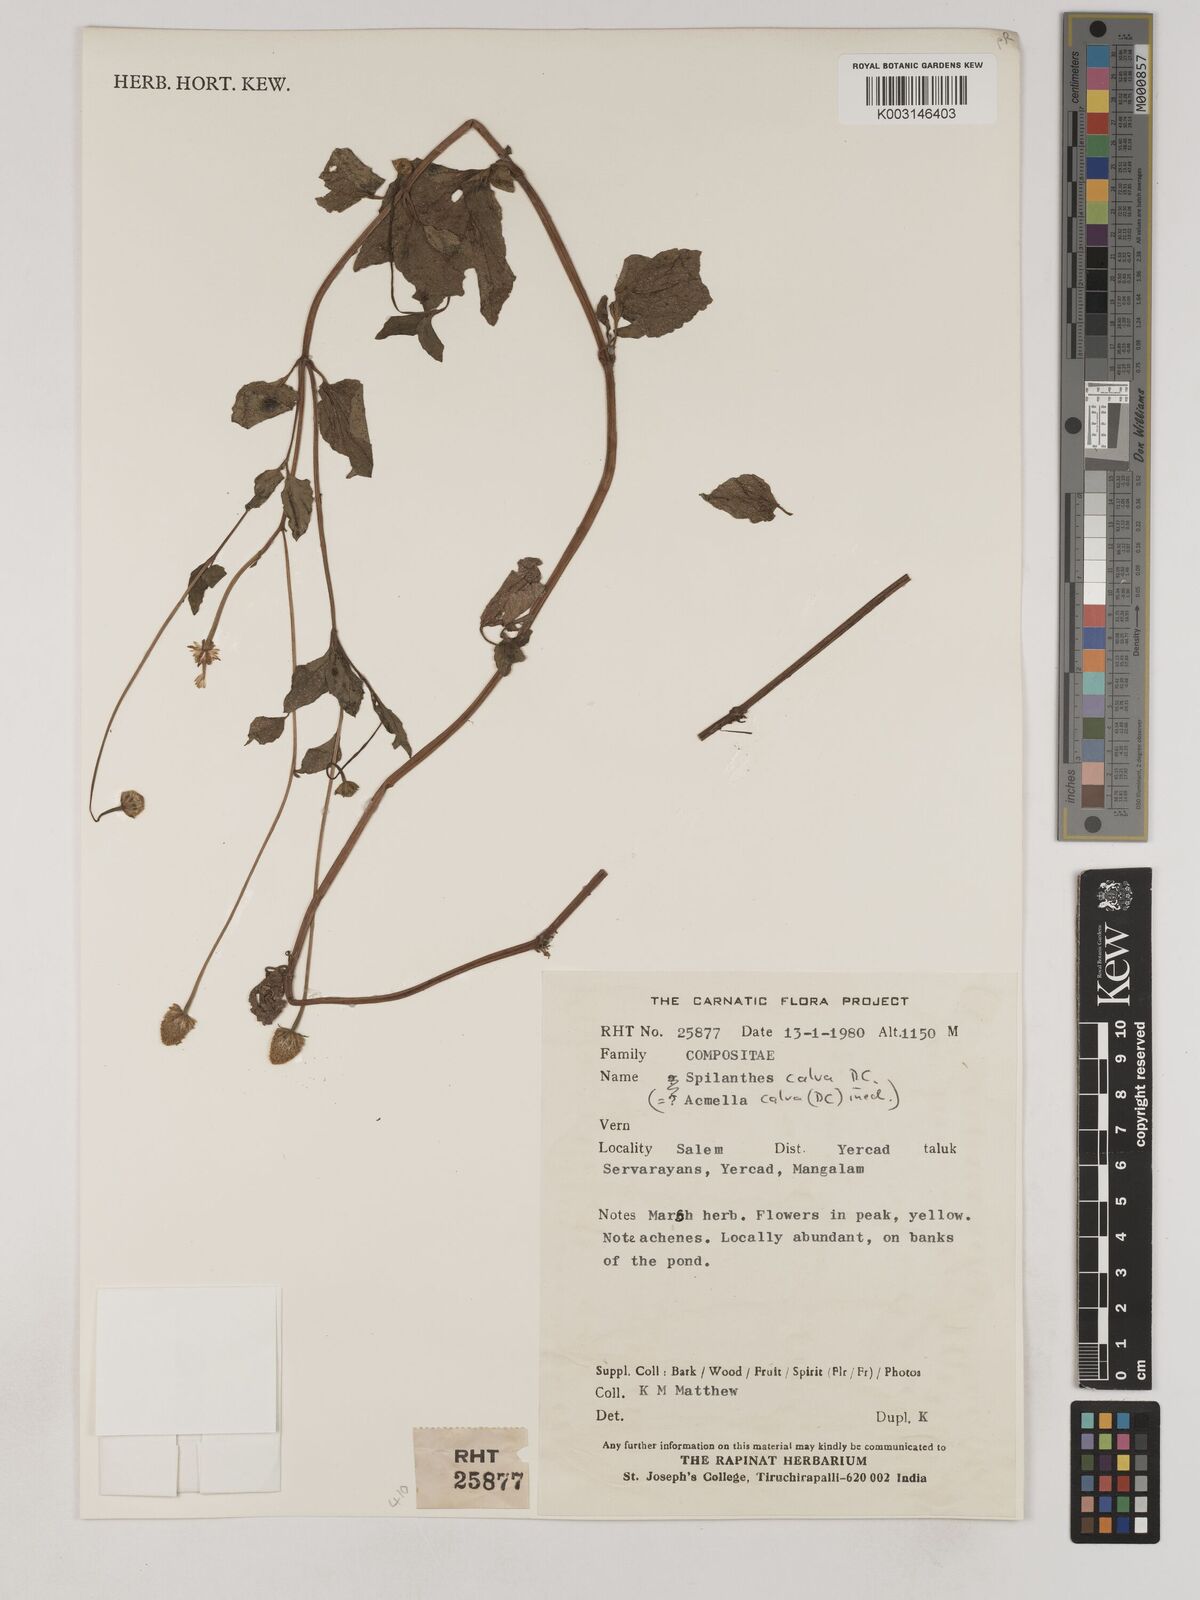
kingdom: Plantae
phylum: Tracheophyta
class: Magnoliopsida
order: Asterales
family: Asteraceae
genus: Acmella
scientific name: Acmella calva
